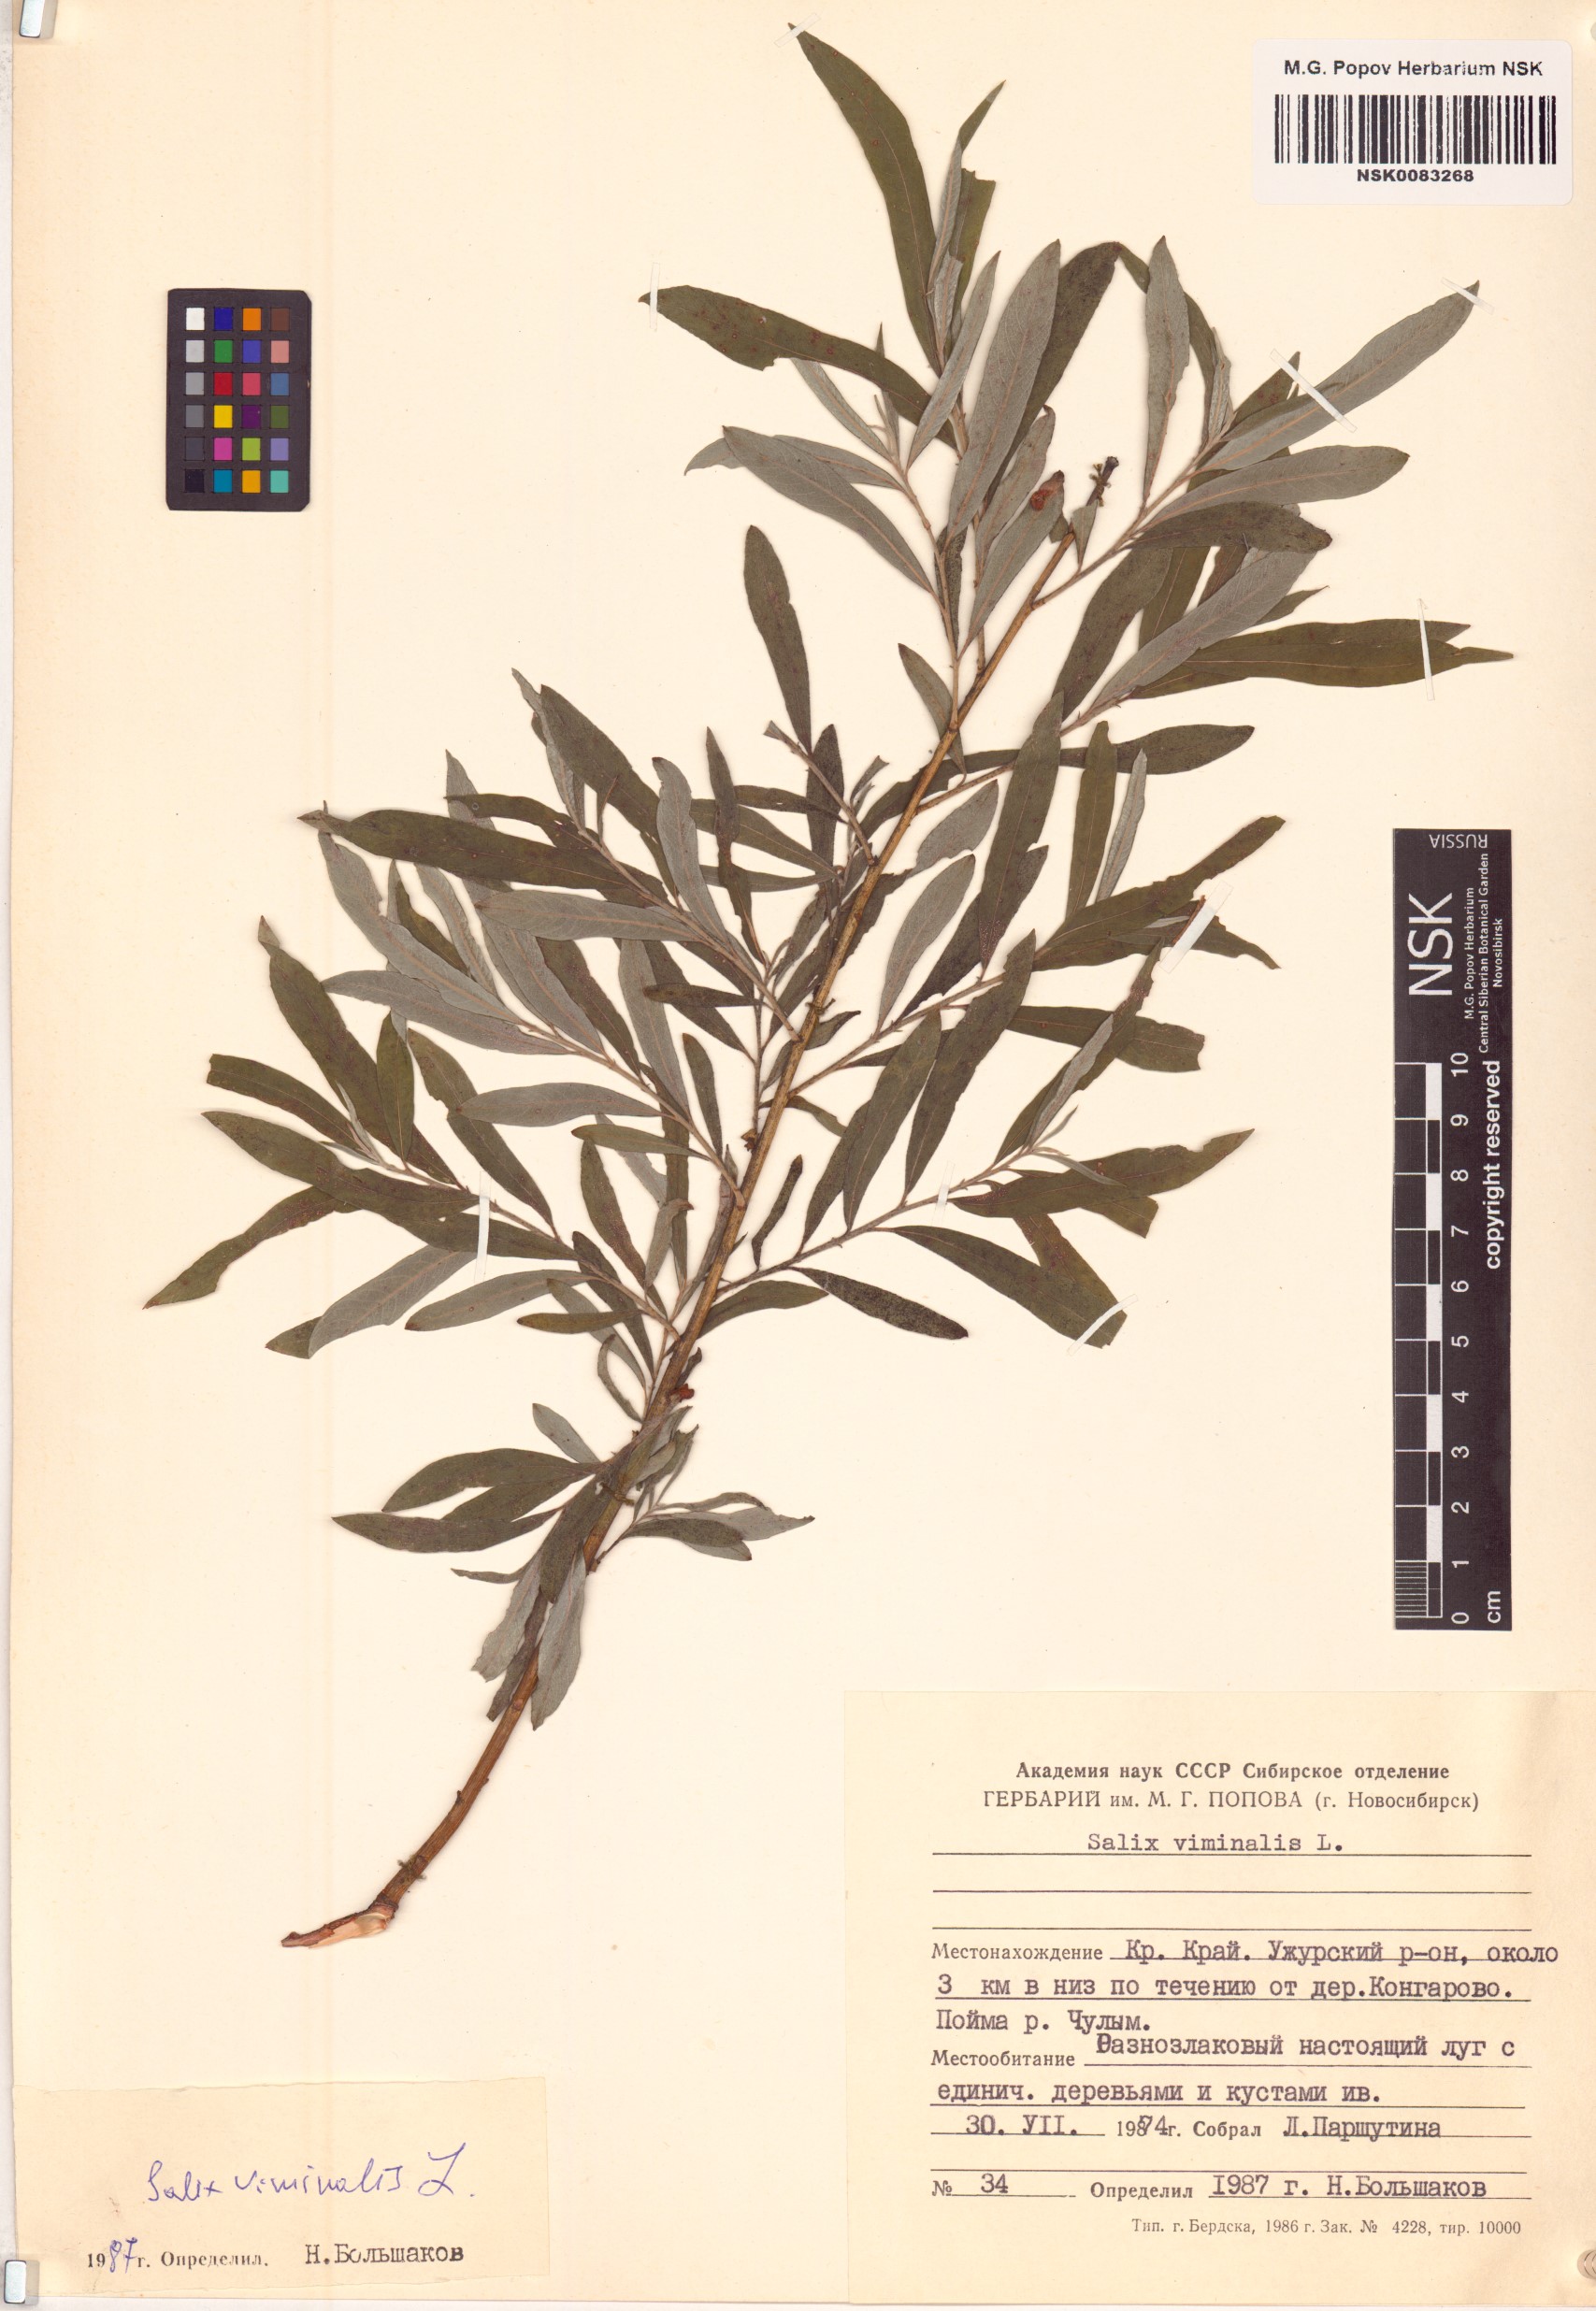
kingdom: Plantae
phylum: Tracheophyta
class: Magnoliopsida
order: Malpighiales
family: Salicaceae
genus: Salix
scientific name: Salix viminalis
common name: Osier
